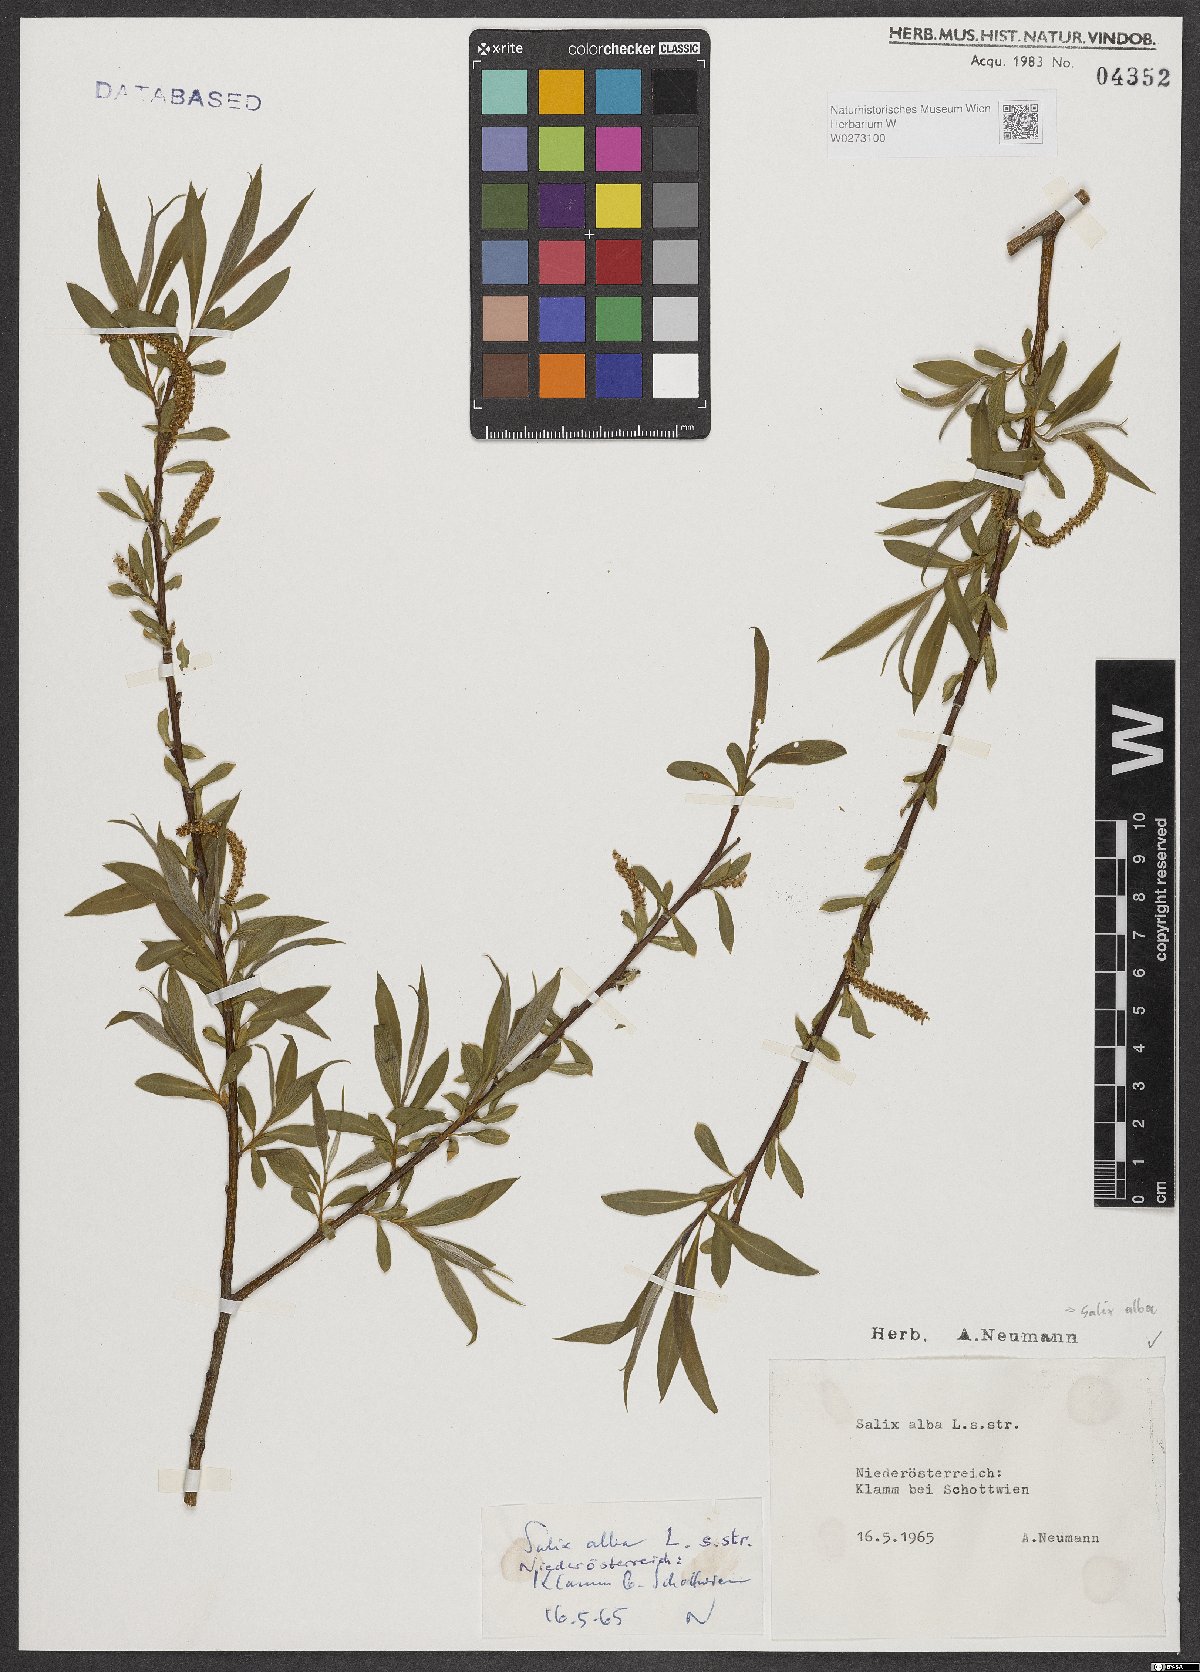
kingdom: Plantae
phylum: Tracheophyta
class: Magnoliopsida
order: Malpighiales
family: Salicaceae
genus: Salix
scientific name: Salix alba
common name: White willow
